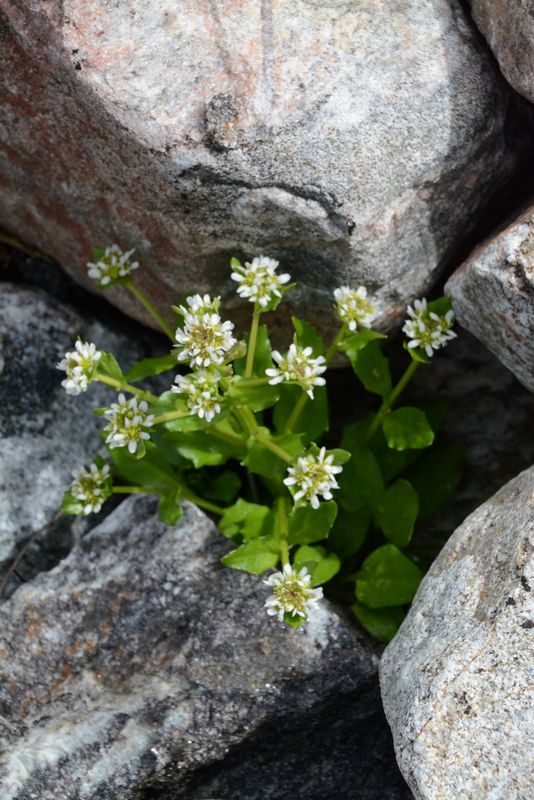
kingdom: Plantae
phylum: Tracheophyta
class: Magnoliopsida
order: Brassicales
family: Brassicaceae
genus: Cochlearia
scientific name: Cochlearia groenlandica
